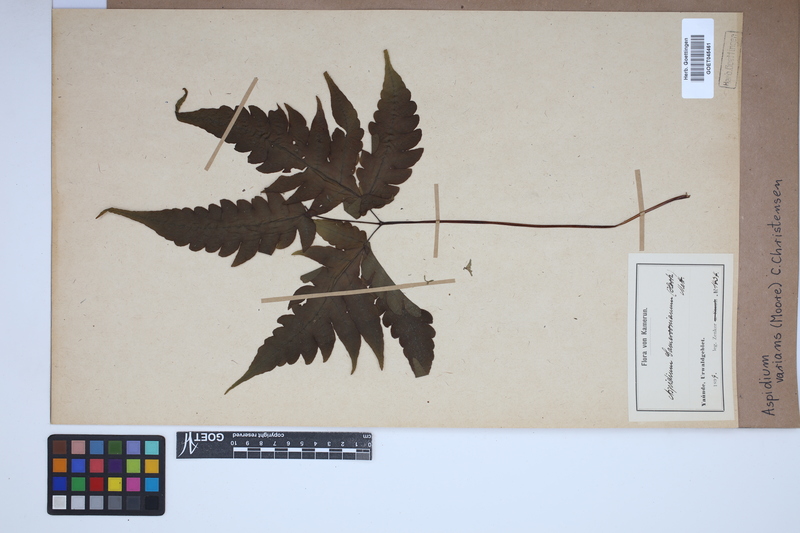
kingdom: Plantae
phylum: Tracheophyta
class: Polypodiopsida
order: Polypodiales
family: Tectariaceae
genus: Triplophyllum
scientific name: Triplophyllum varians
